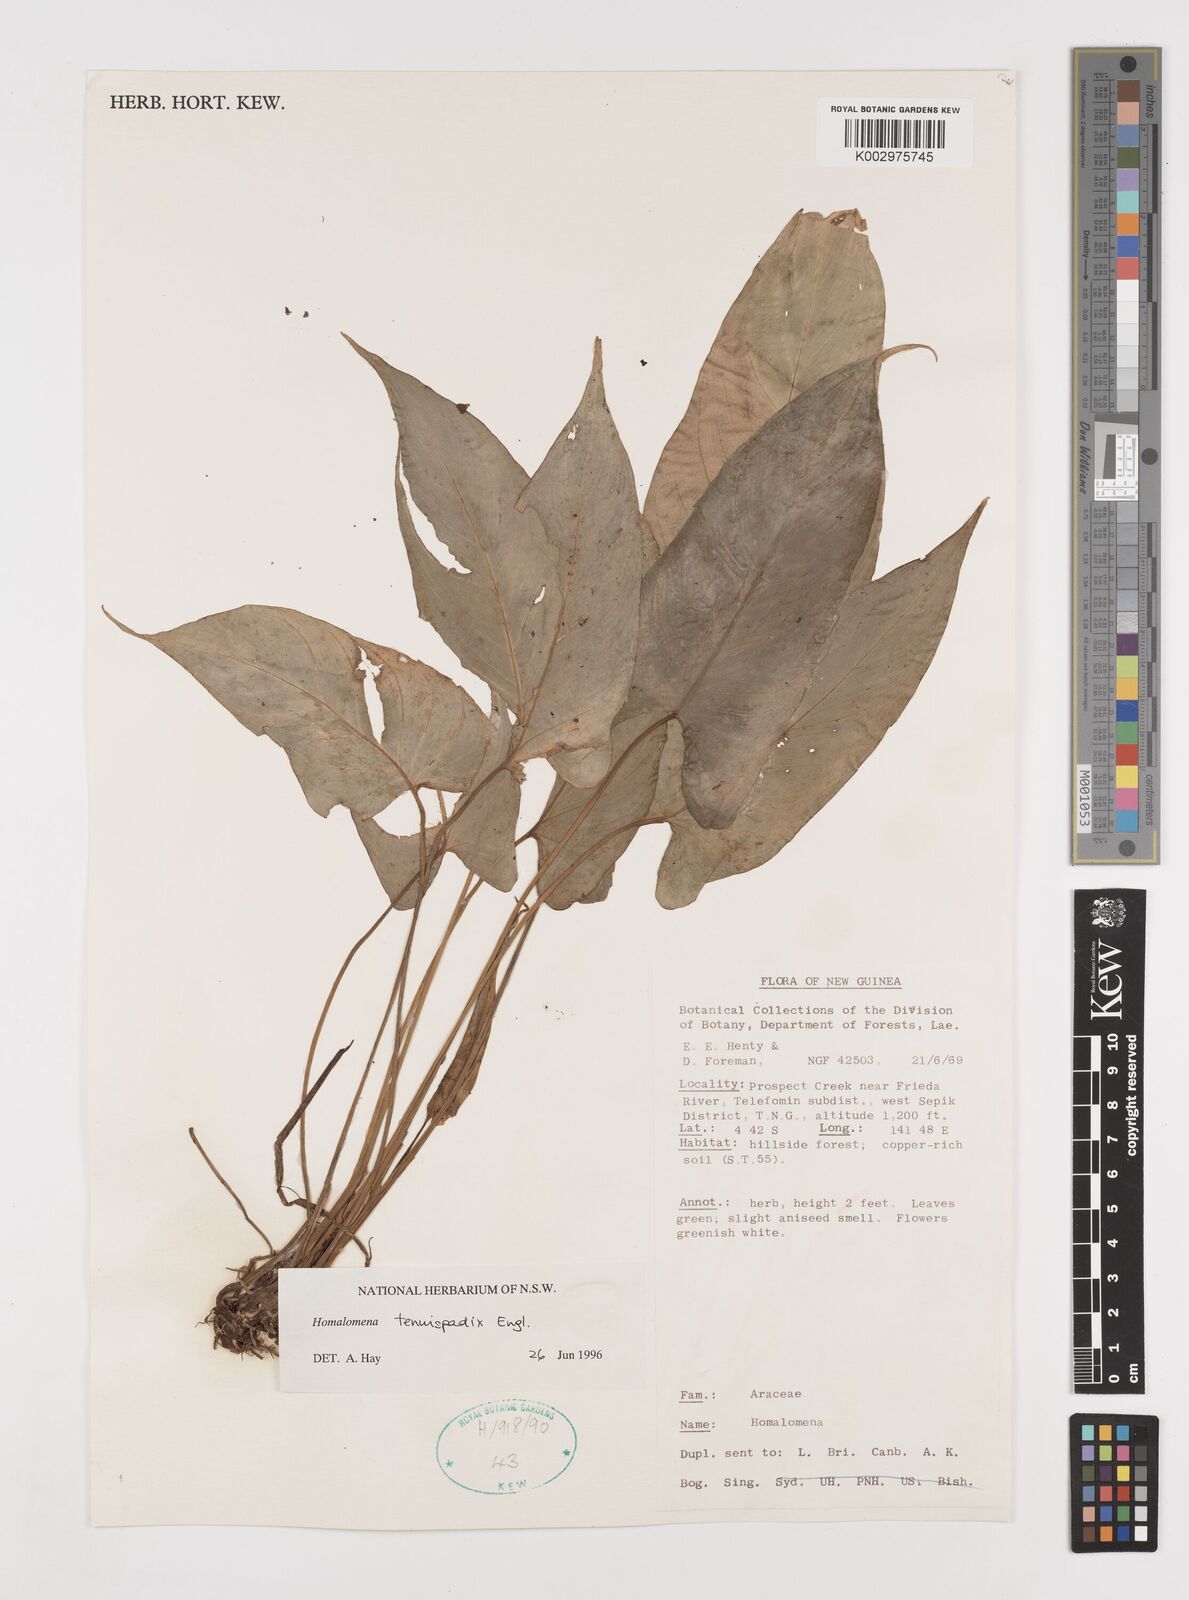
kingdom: Plantae
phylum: Tracheophyta
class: Liliopsida
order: Alismatales
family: Araceae
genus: Homalomena
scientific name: Homalomena tenuispadix
